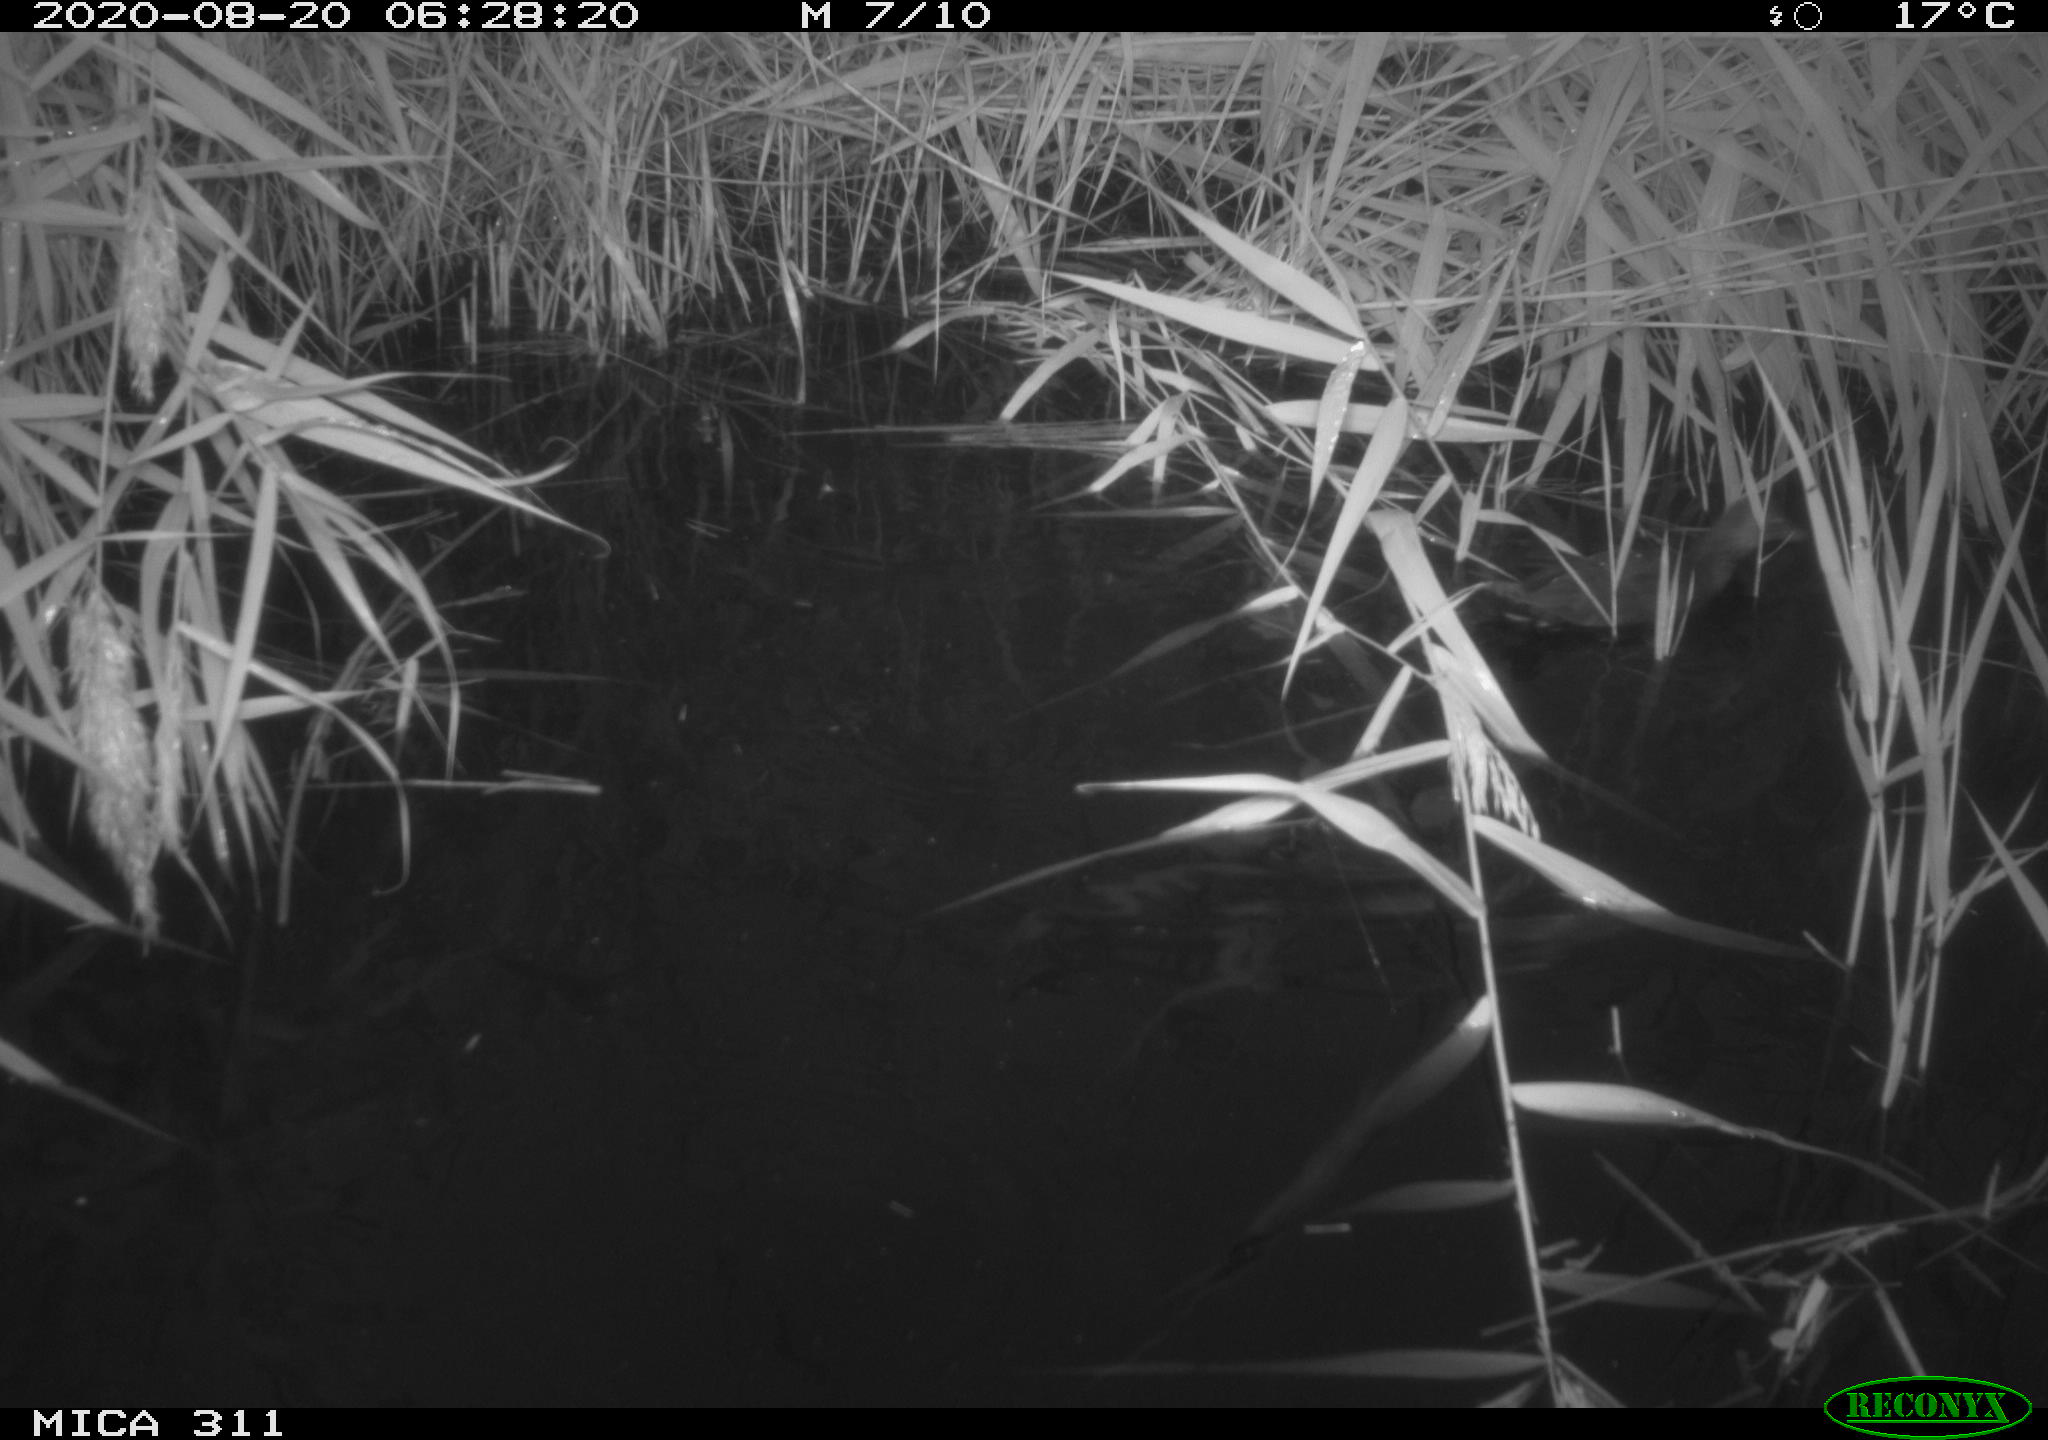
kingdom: Animalia
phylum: Chordata
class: Aves
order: Gruiformes
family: Rallidae
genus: Gallinula
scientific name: Gallinula chloropus
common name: Common moorhen
